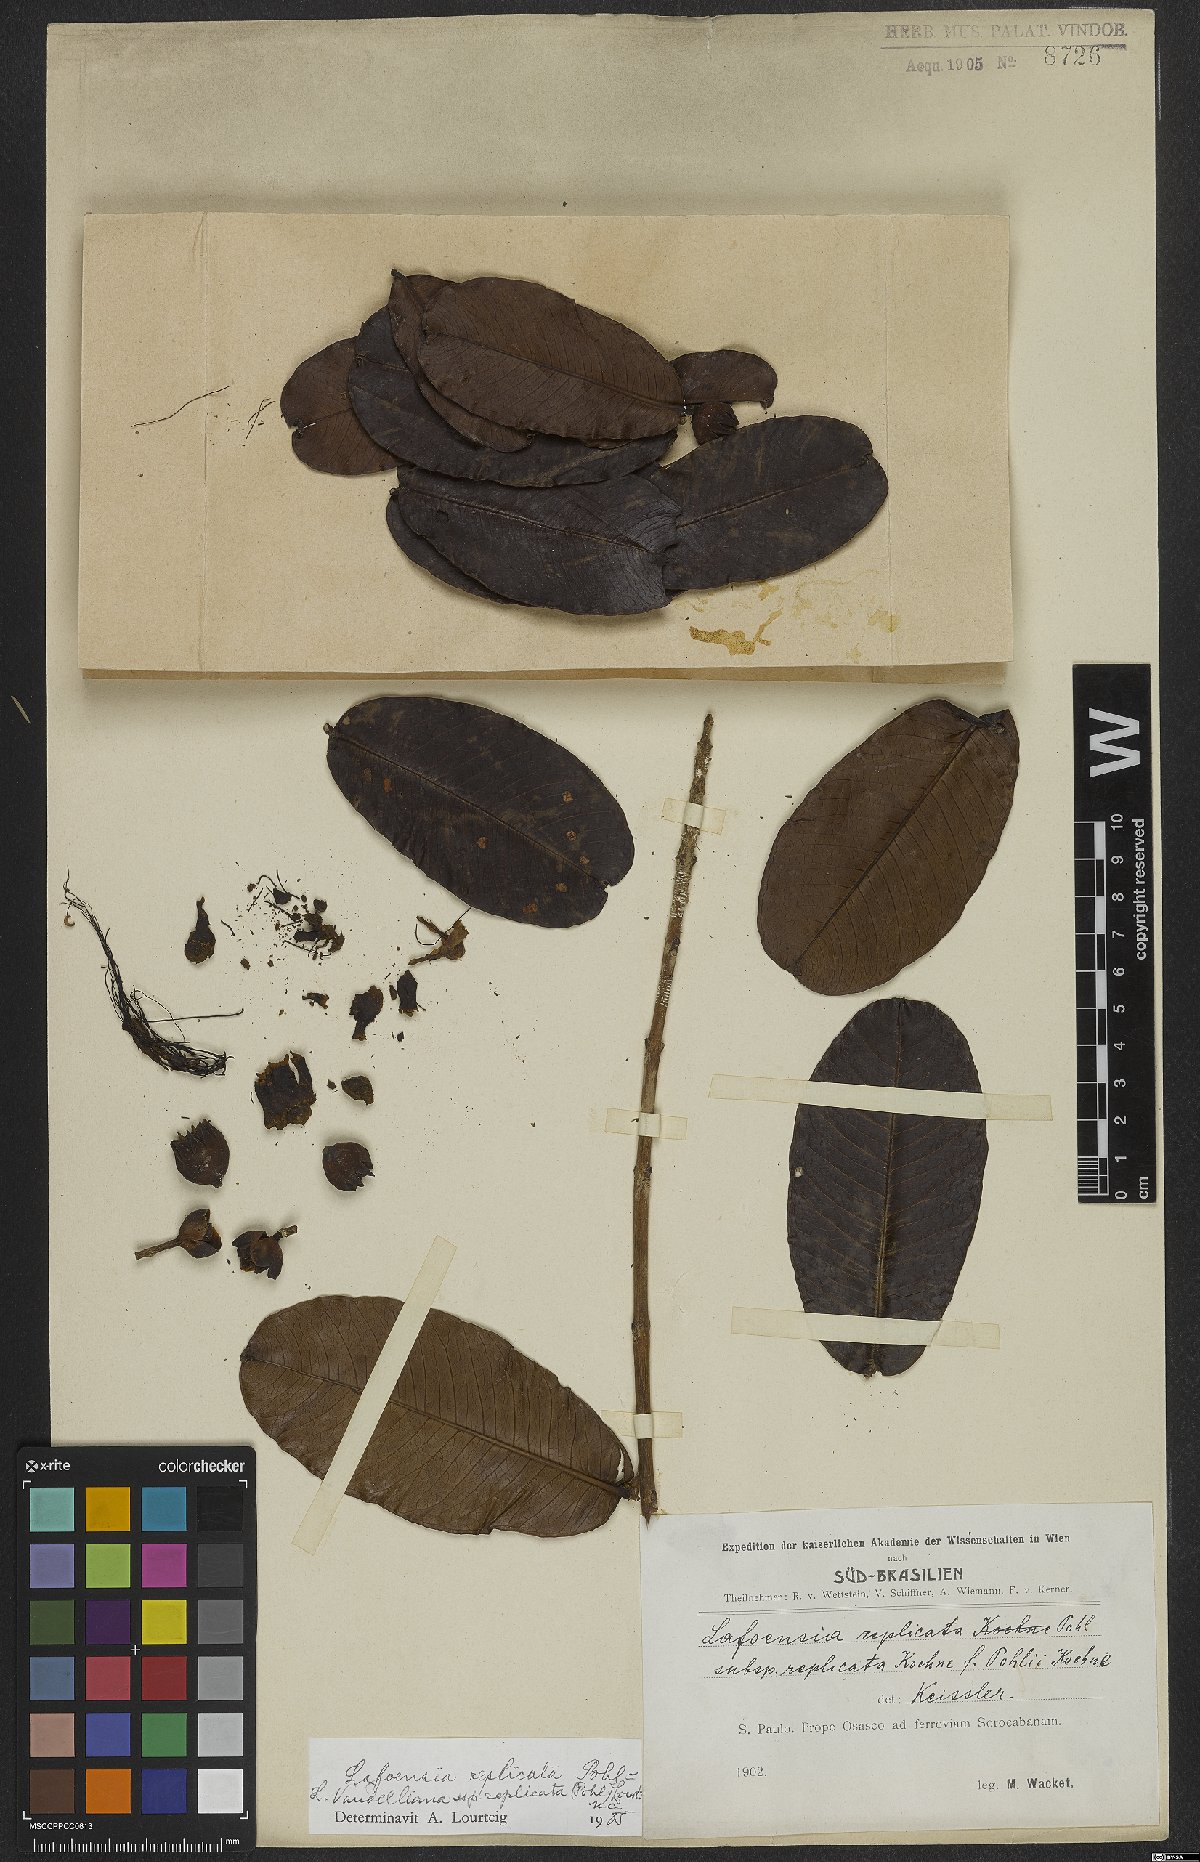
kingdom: Plantae
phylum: Tracheophyta
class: Magnoliopsida
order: Myrtales
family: Lythraceae
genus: Lafoensia
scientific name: Lafoensia vandelliana
